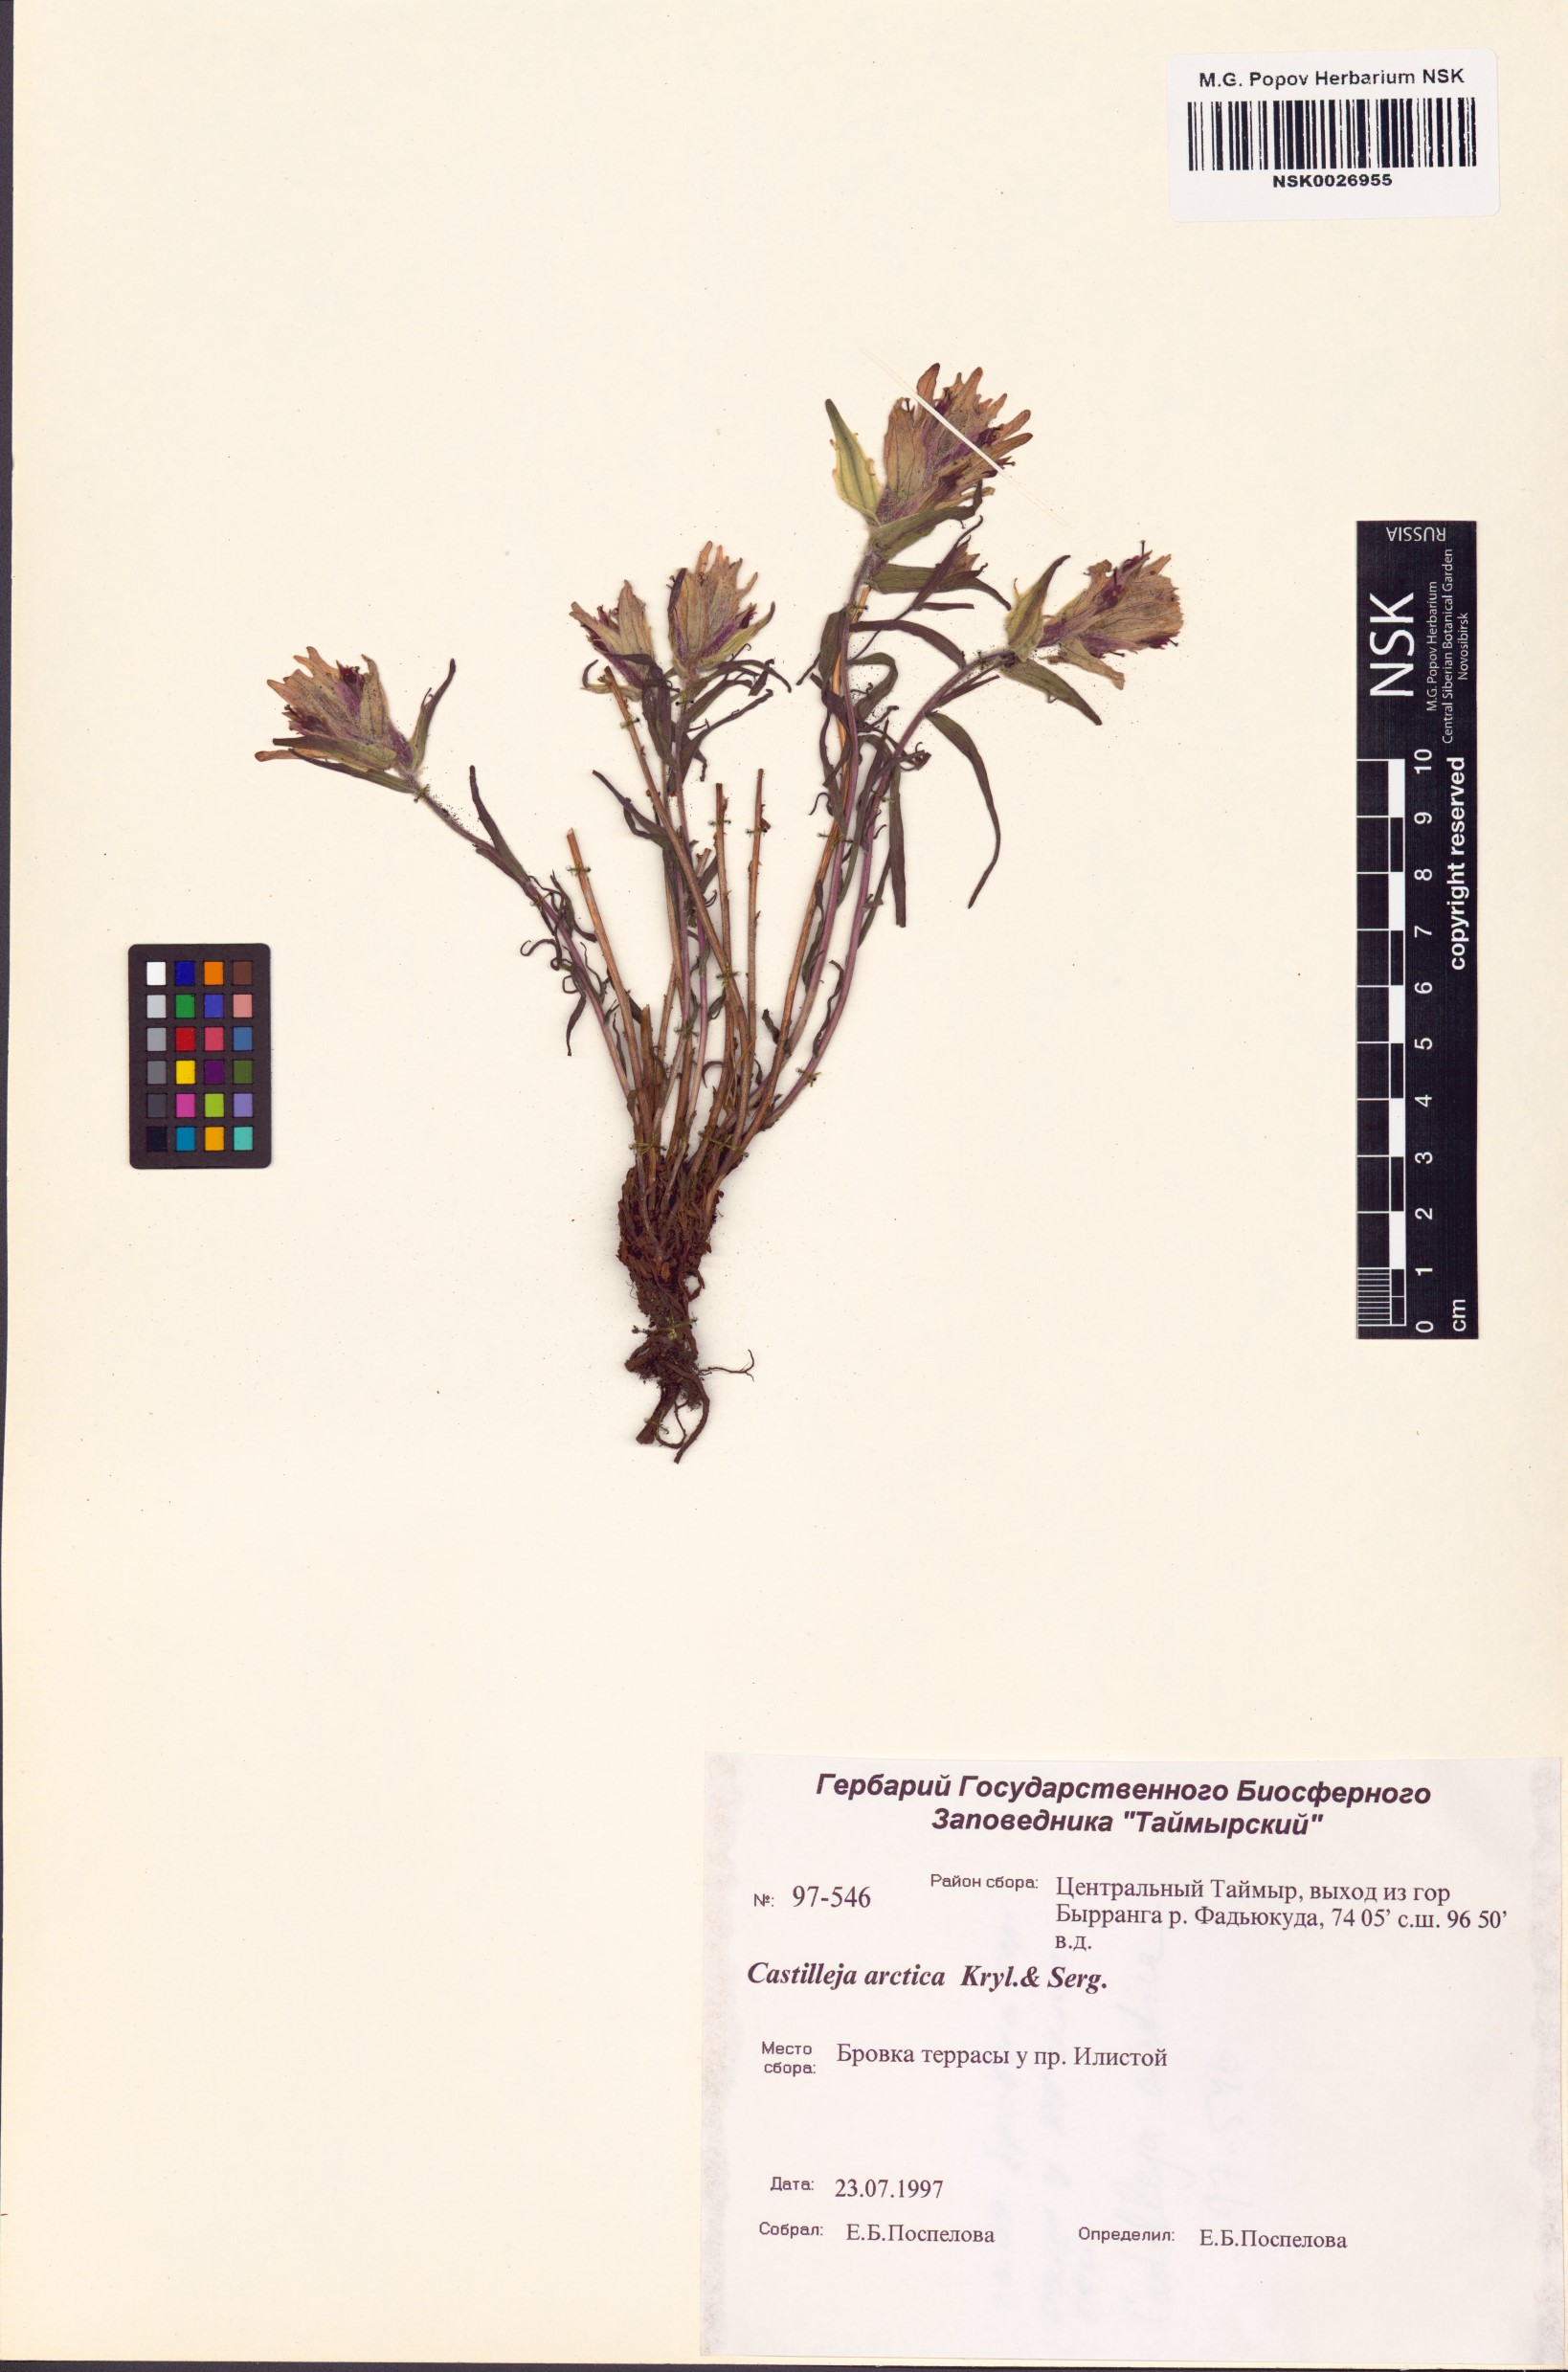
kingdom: Plantae
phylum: Tracheophyta
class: Magnoliopsida
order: Lamiales
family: Orobanchaceae
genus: Castilleja
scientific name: Castilleja arctica
